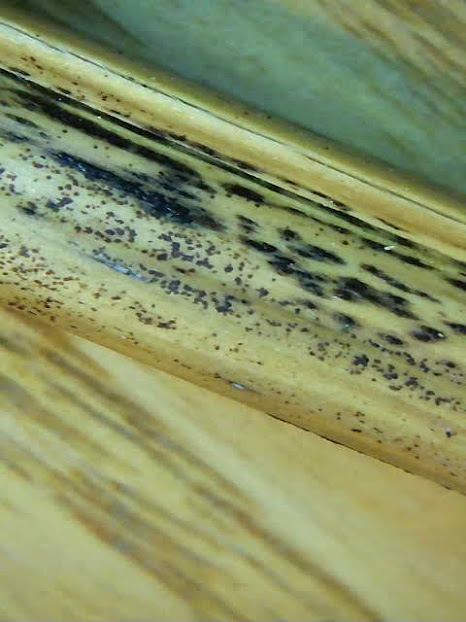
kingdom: Fungi
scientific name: Fungi
